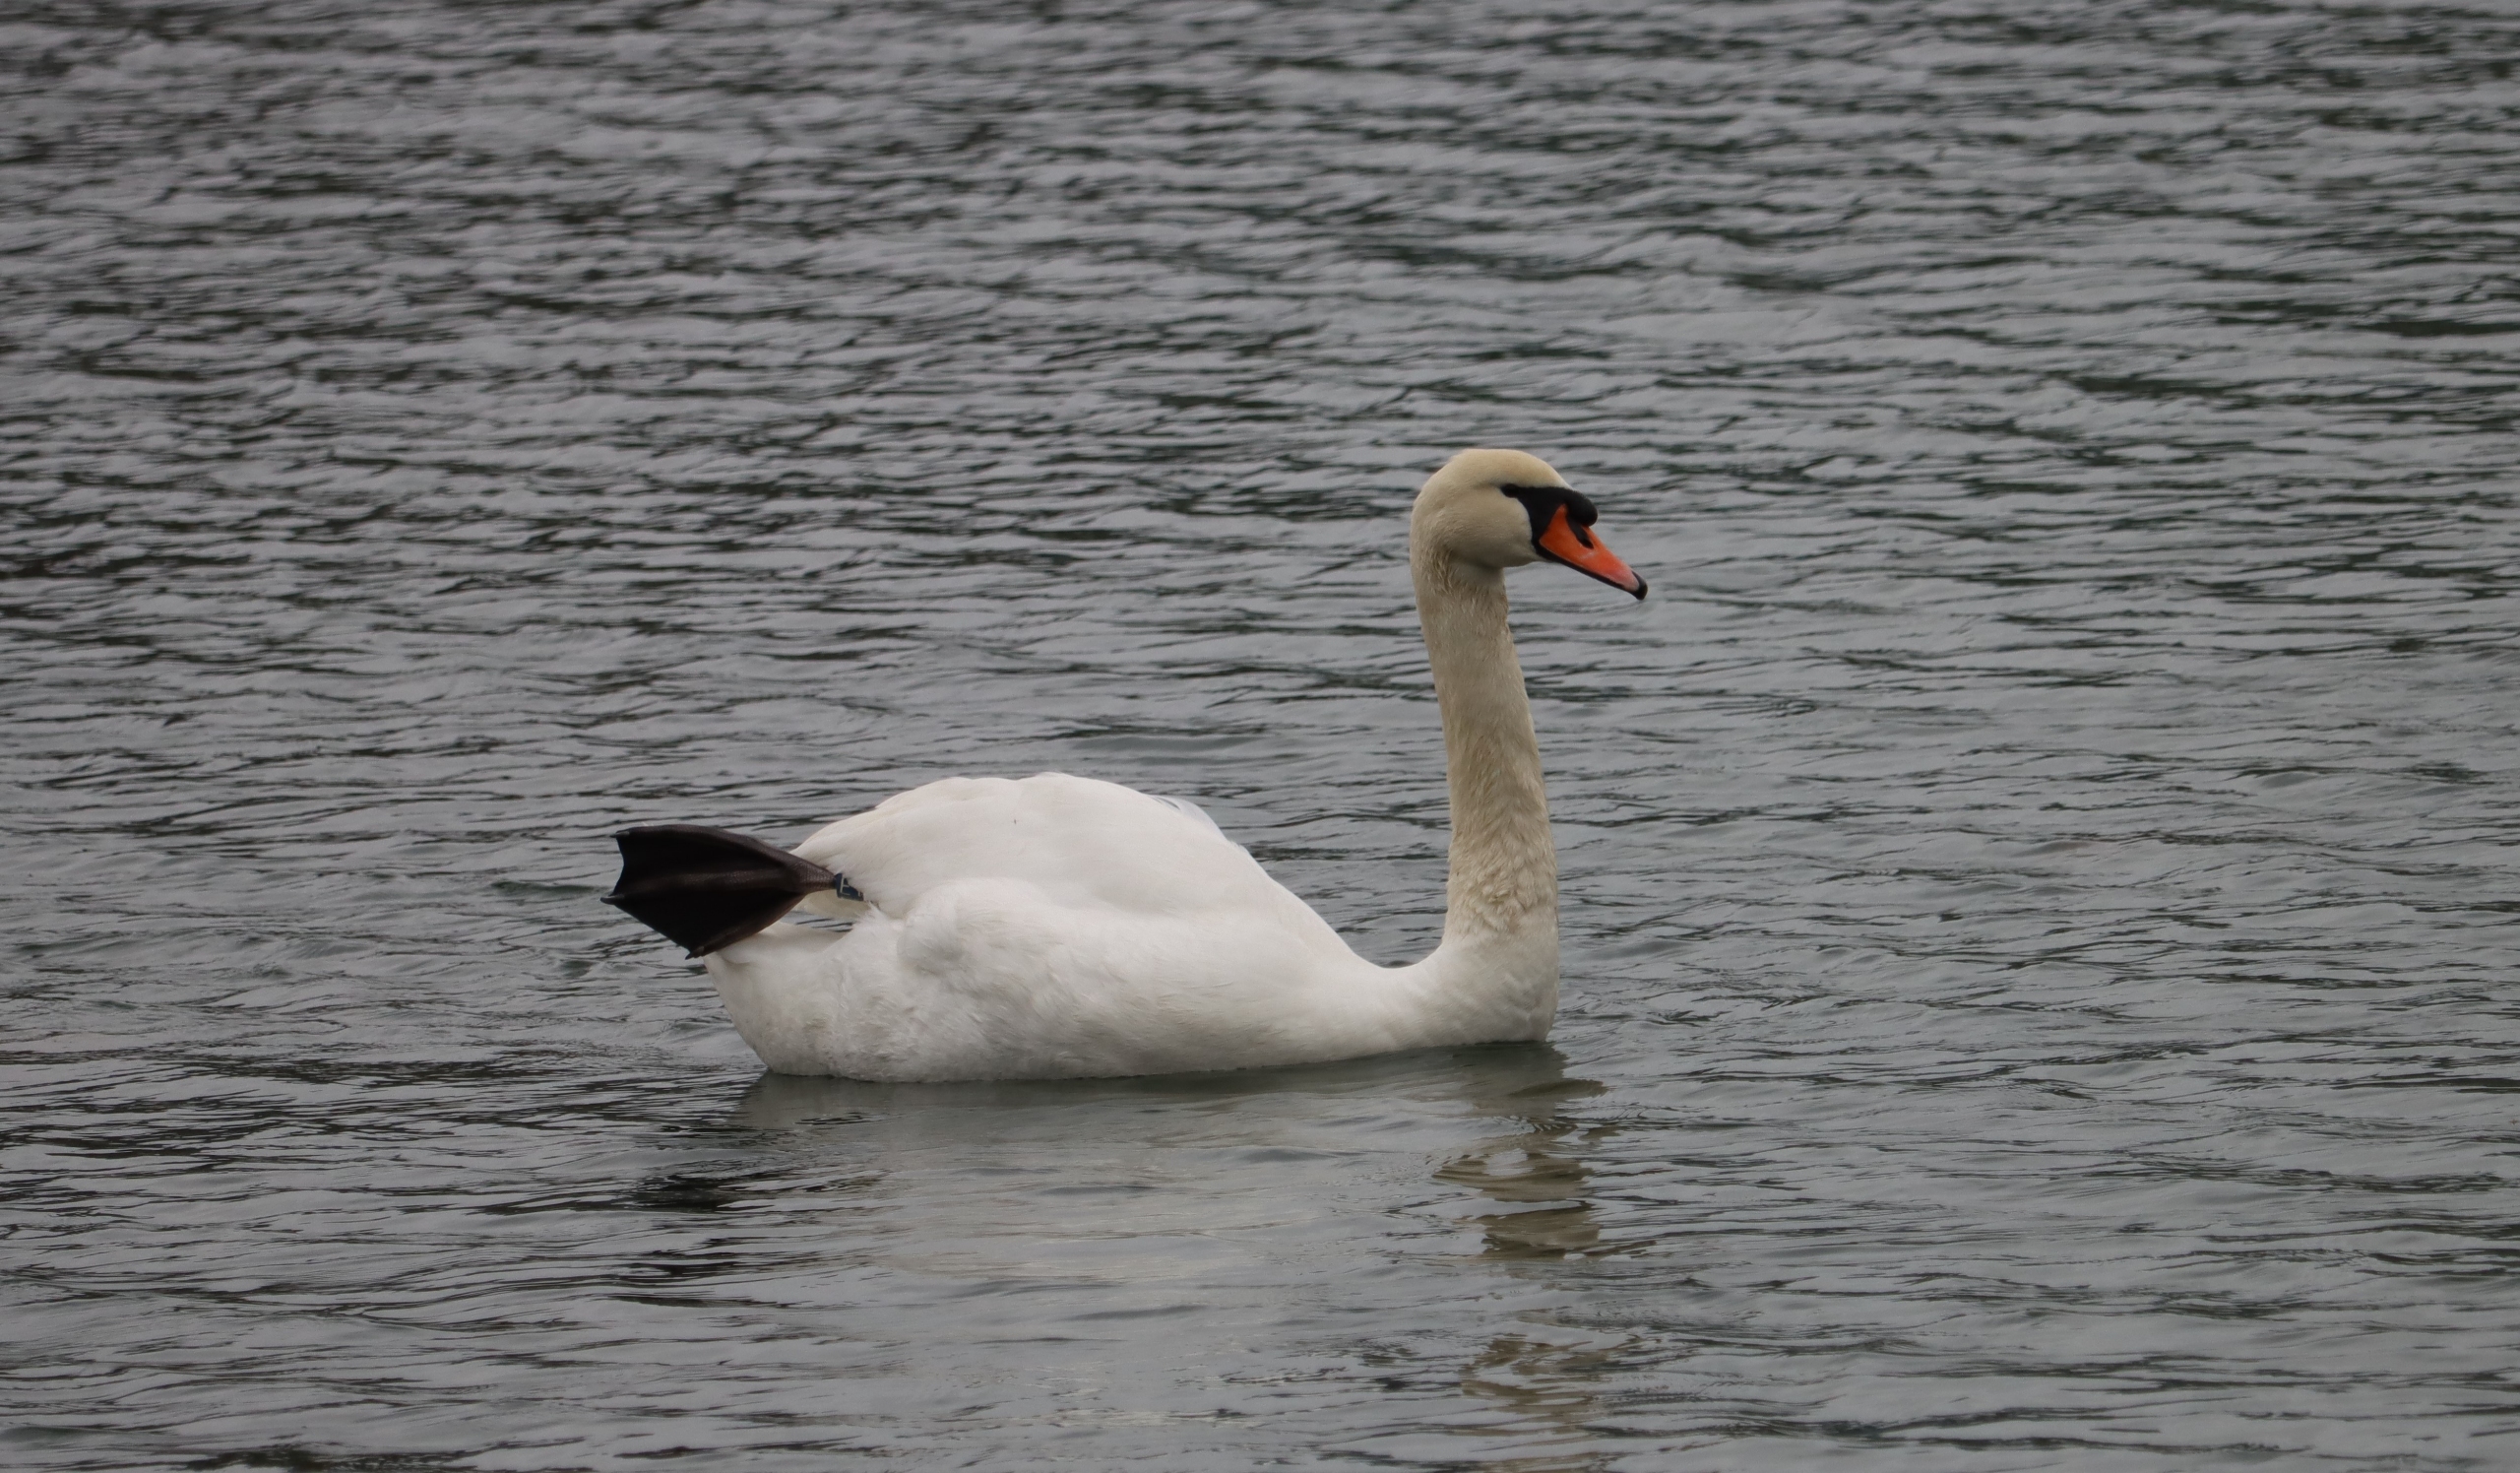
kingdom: Animalia
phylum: Chordata
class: Aves
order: Anseriformes
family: Anatidae
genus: Cygnus
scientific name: Cygnus olor
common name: Knopsvane
